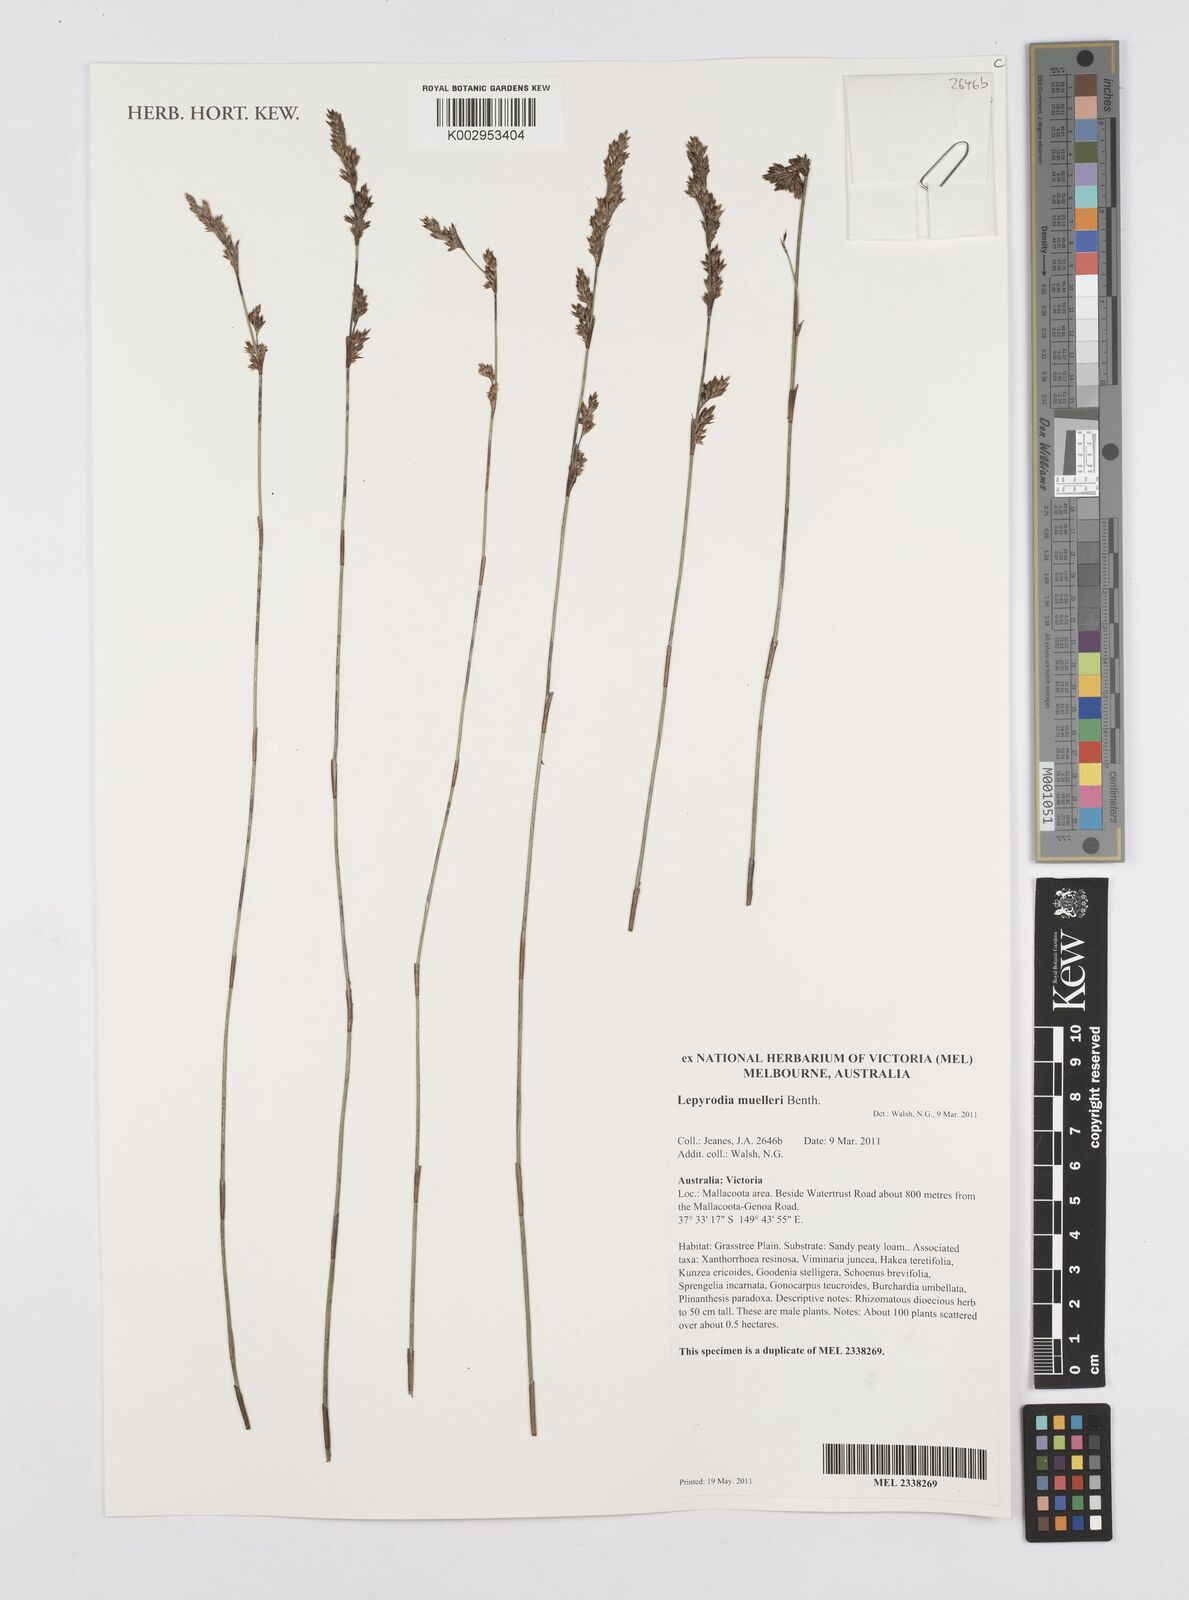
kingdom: Plantae
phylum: Tracheophyta
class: Liliopsida
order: Poales
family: Restionaceae
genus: Lepyrodia
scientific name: Lepyrodia muelleri
